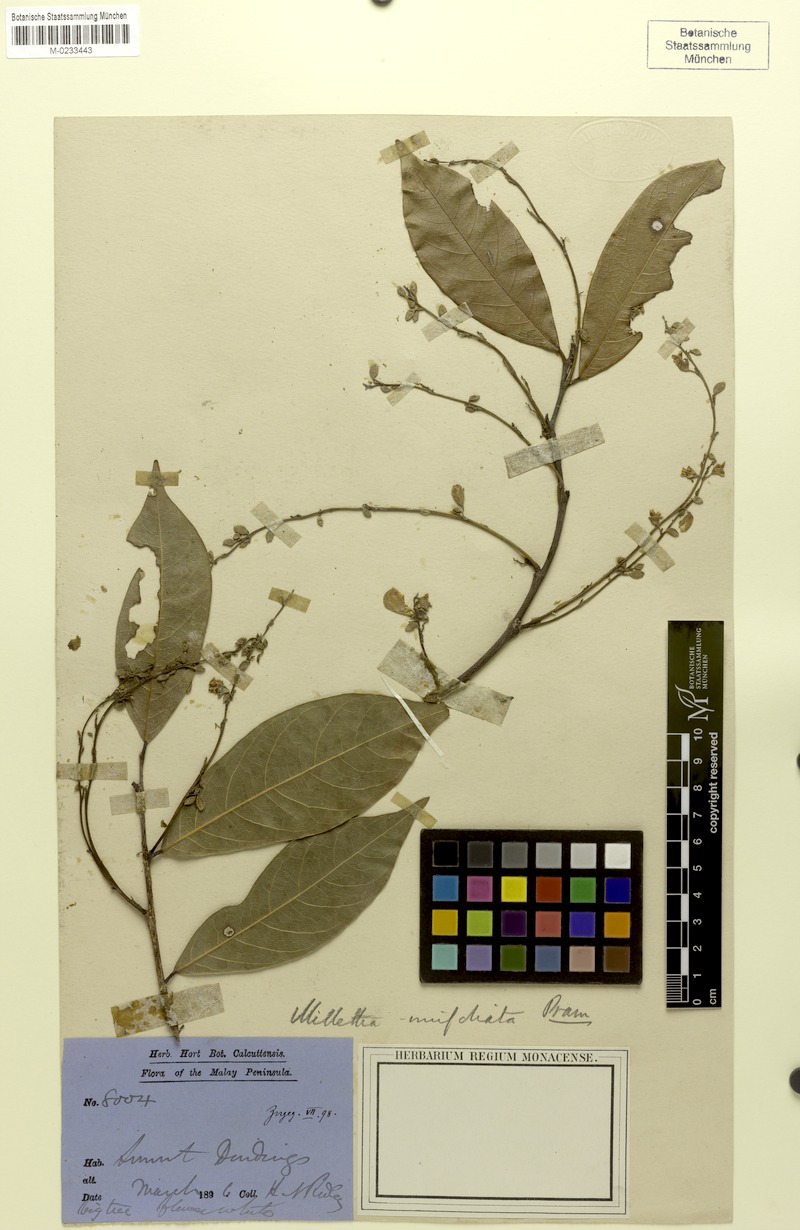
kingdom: Plantae
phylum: Tracheophyta
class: Magnoliopsida
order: Fabales
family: Fabaceae
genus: Imbralyx
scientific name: Imbralyx unifoliatus
